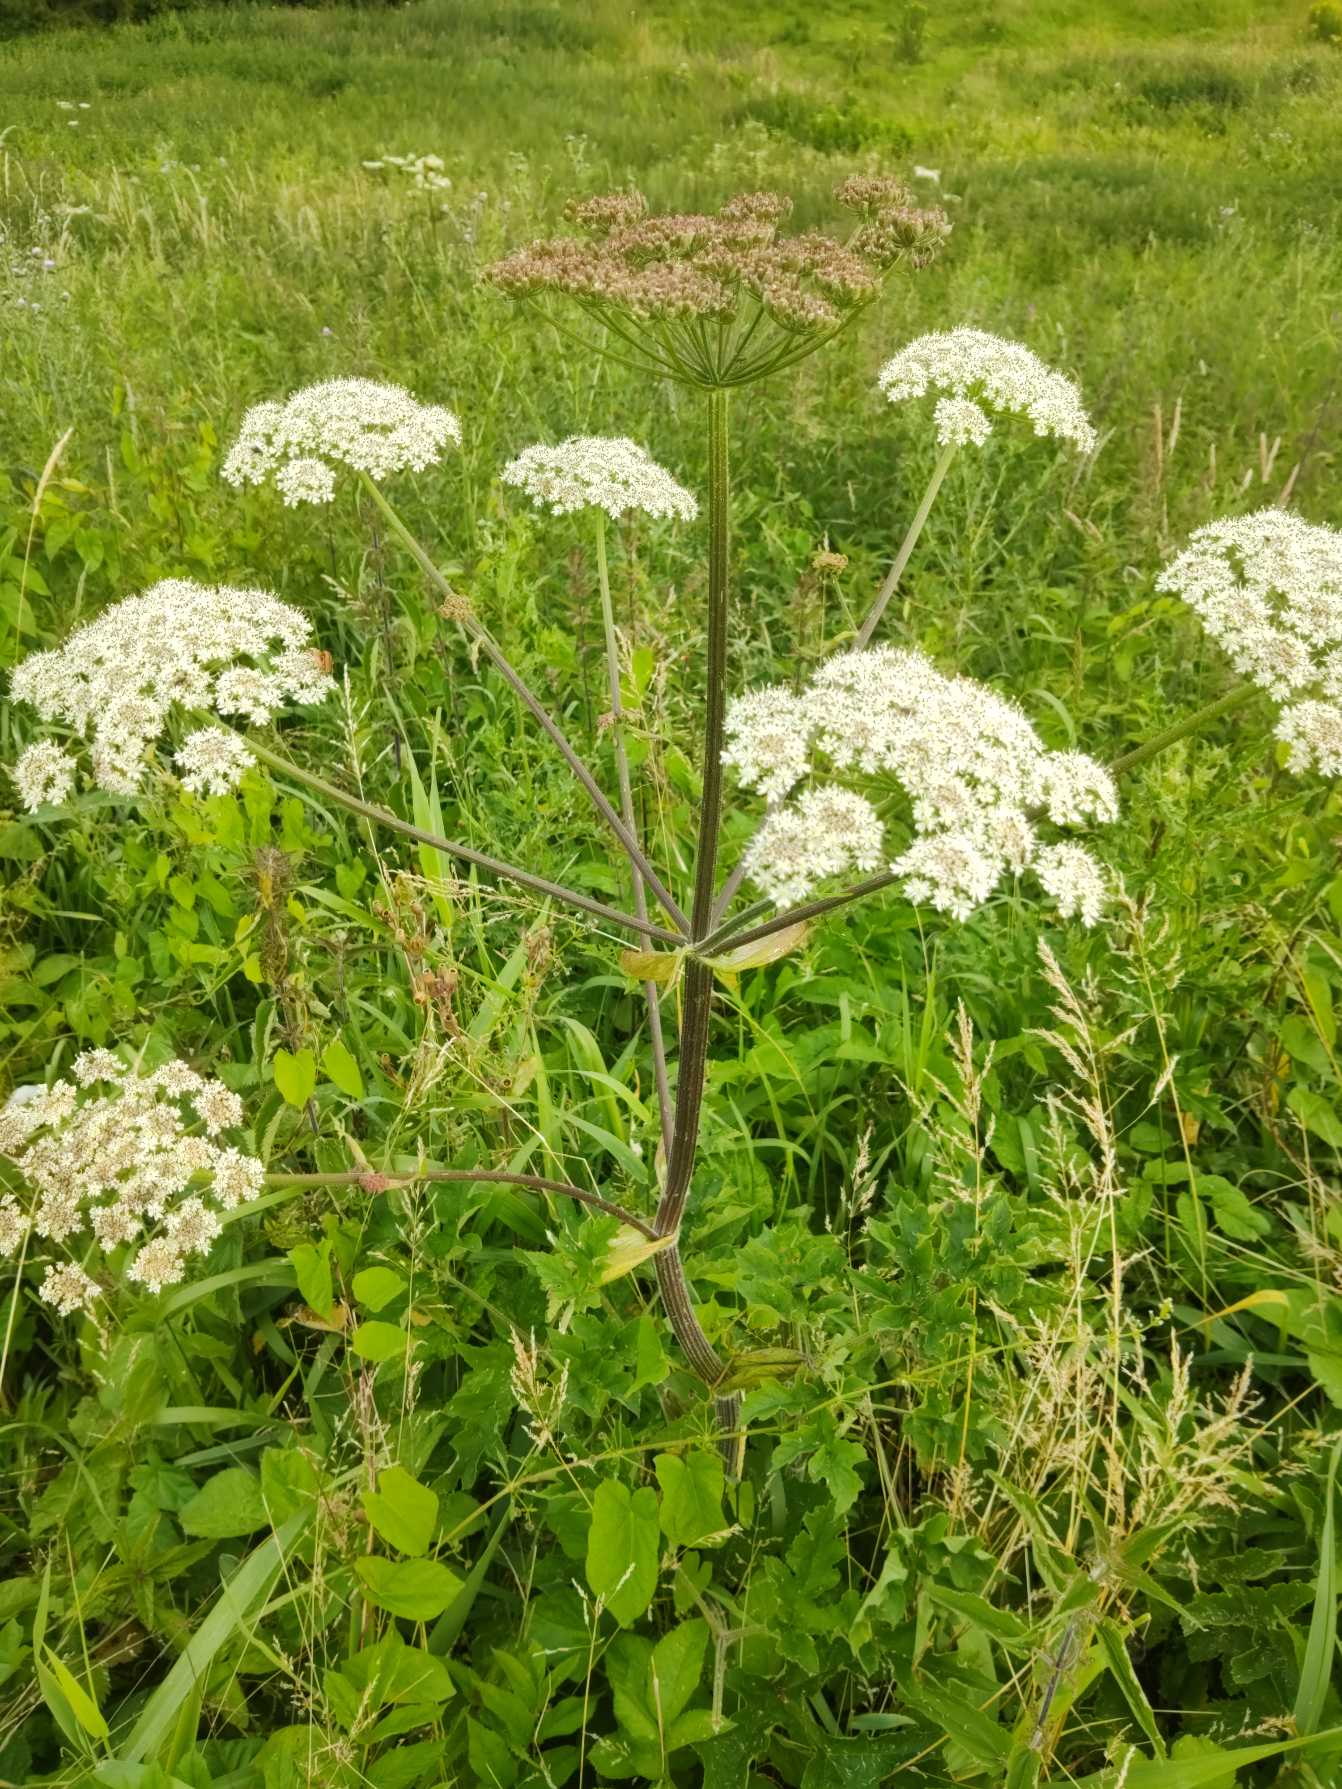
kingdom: Plantae
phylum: Tracheophyta
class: Magnoliopsida
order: Apiales
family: Apiaceae
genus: Heracleum
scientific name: Heracleum sphondylium
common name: Almindelig bjørneklo (underart)
